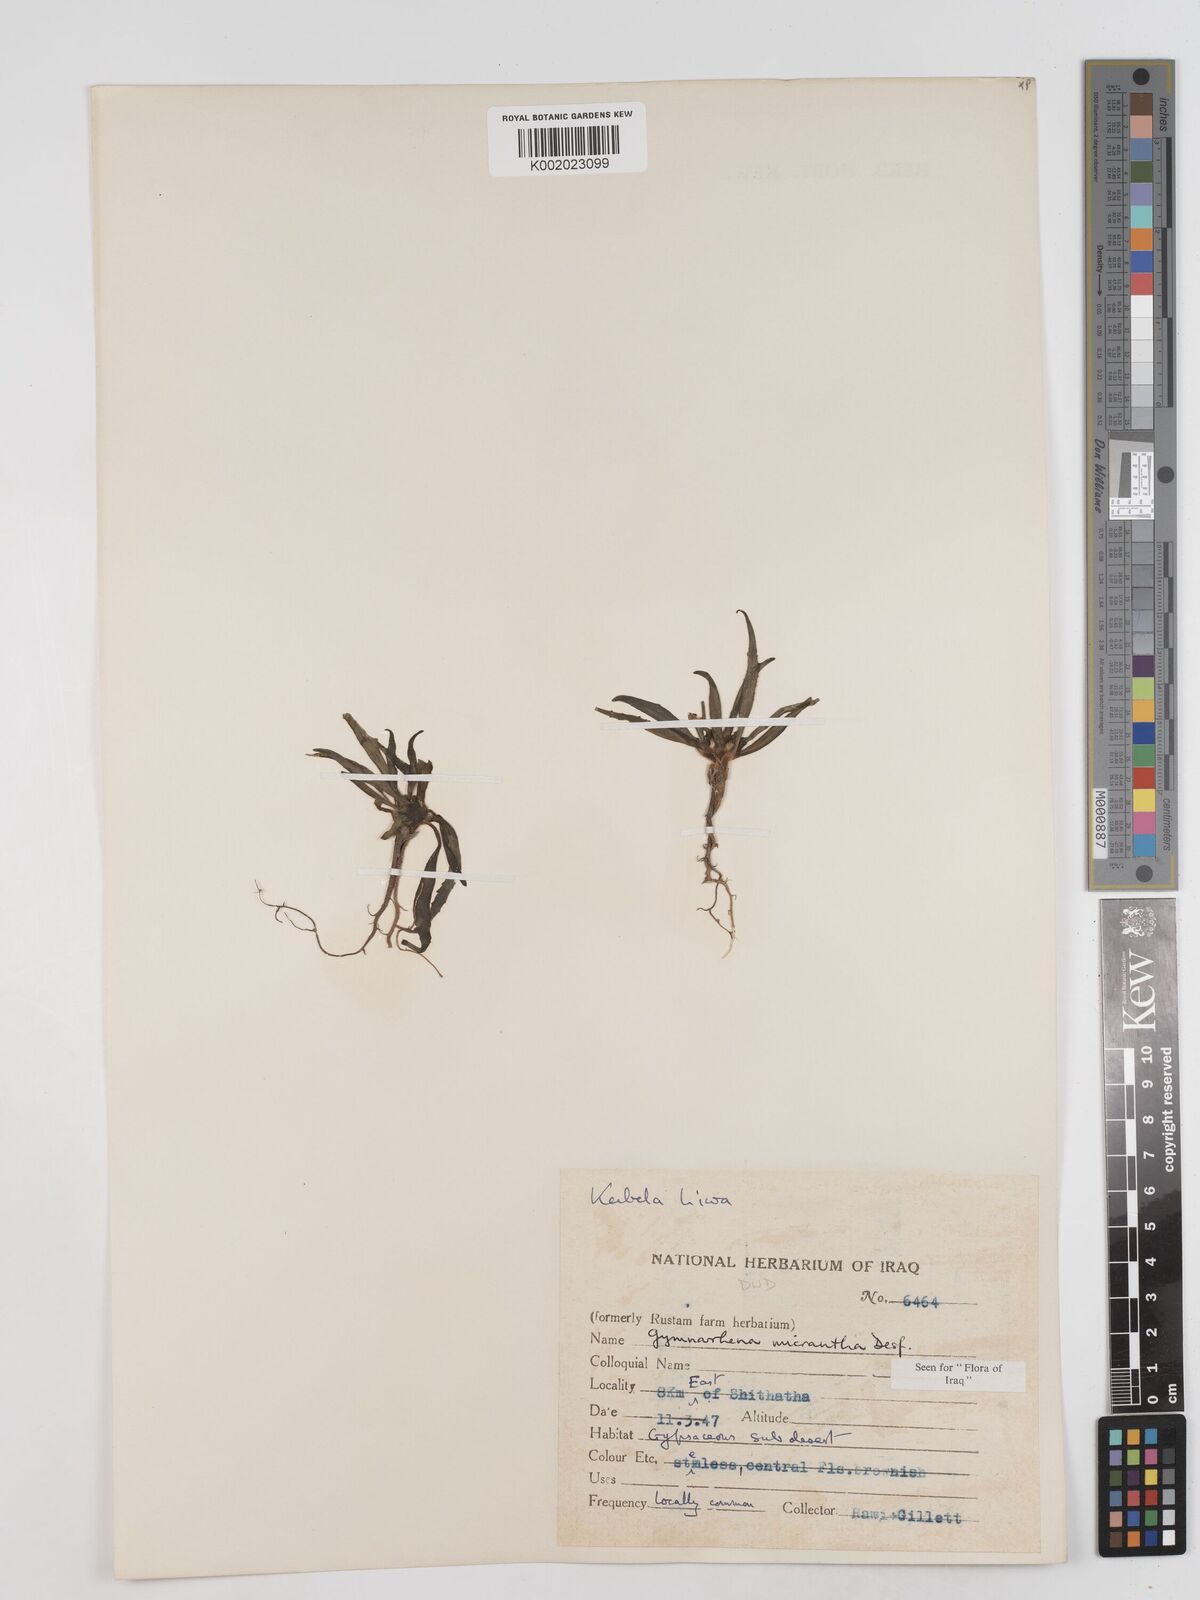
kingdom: Plantae
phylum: Tracheophyta
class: Magnoliopsida
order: Asterales
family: Asteraceae
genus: Gymnarrhena
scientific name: Gymnarrhena micrantha
